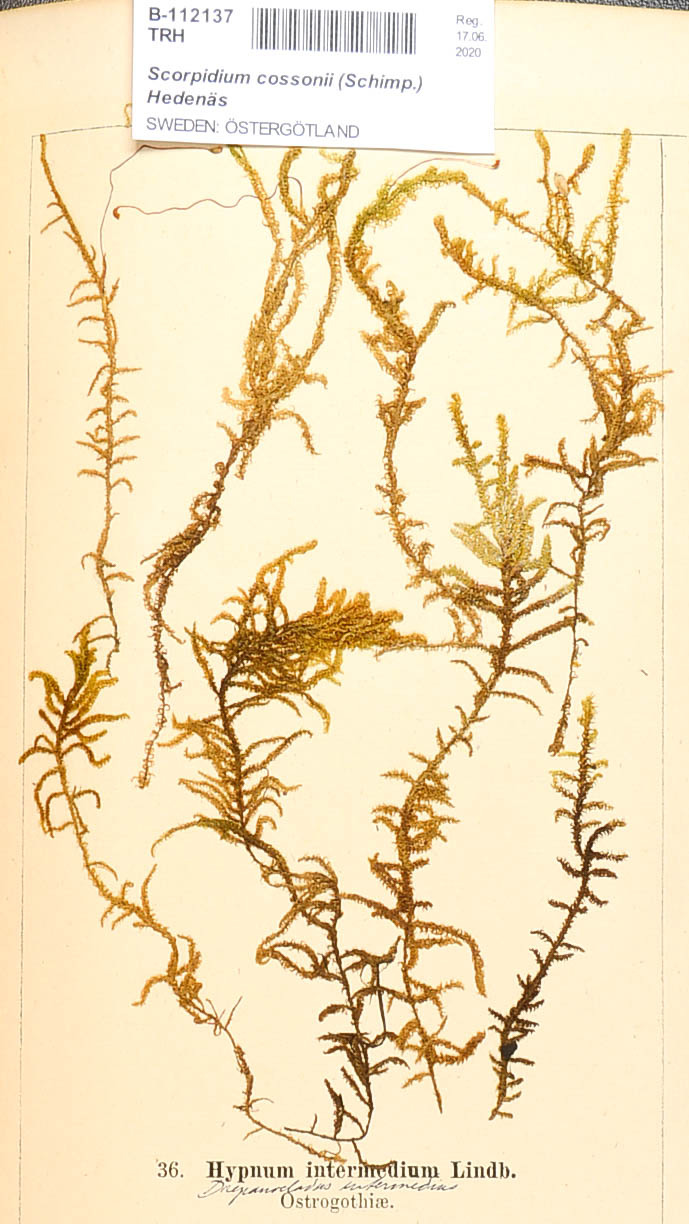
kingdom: Plantae
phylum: Bryophyta
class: Bryopsida
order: Hypnales
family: Scorpidiaceae
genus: Scorpidium
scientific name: Scorpidium cossonii
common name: Cosson's hook moss
